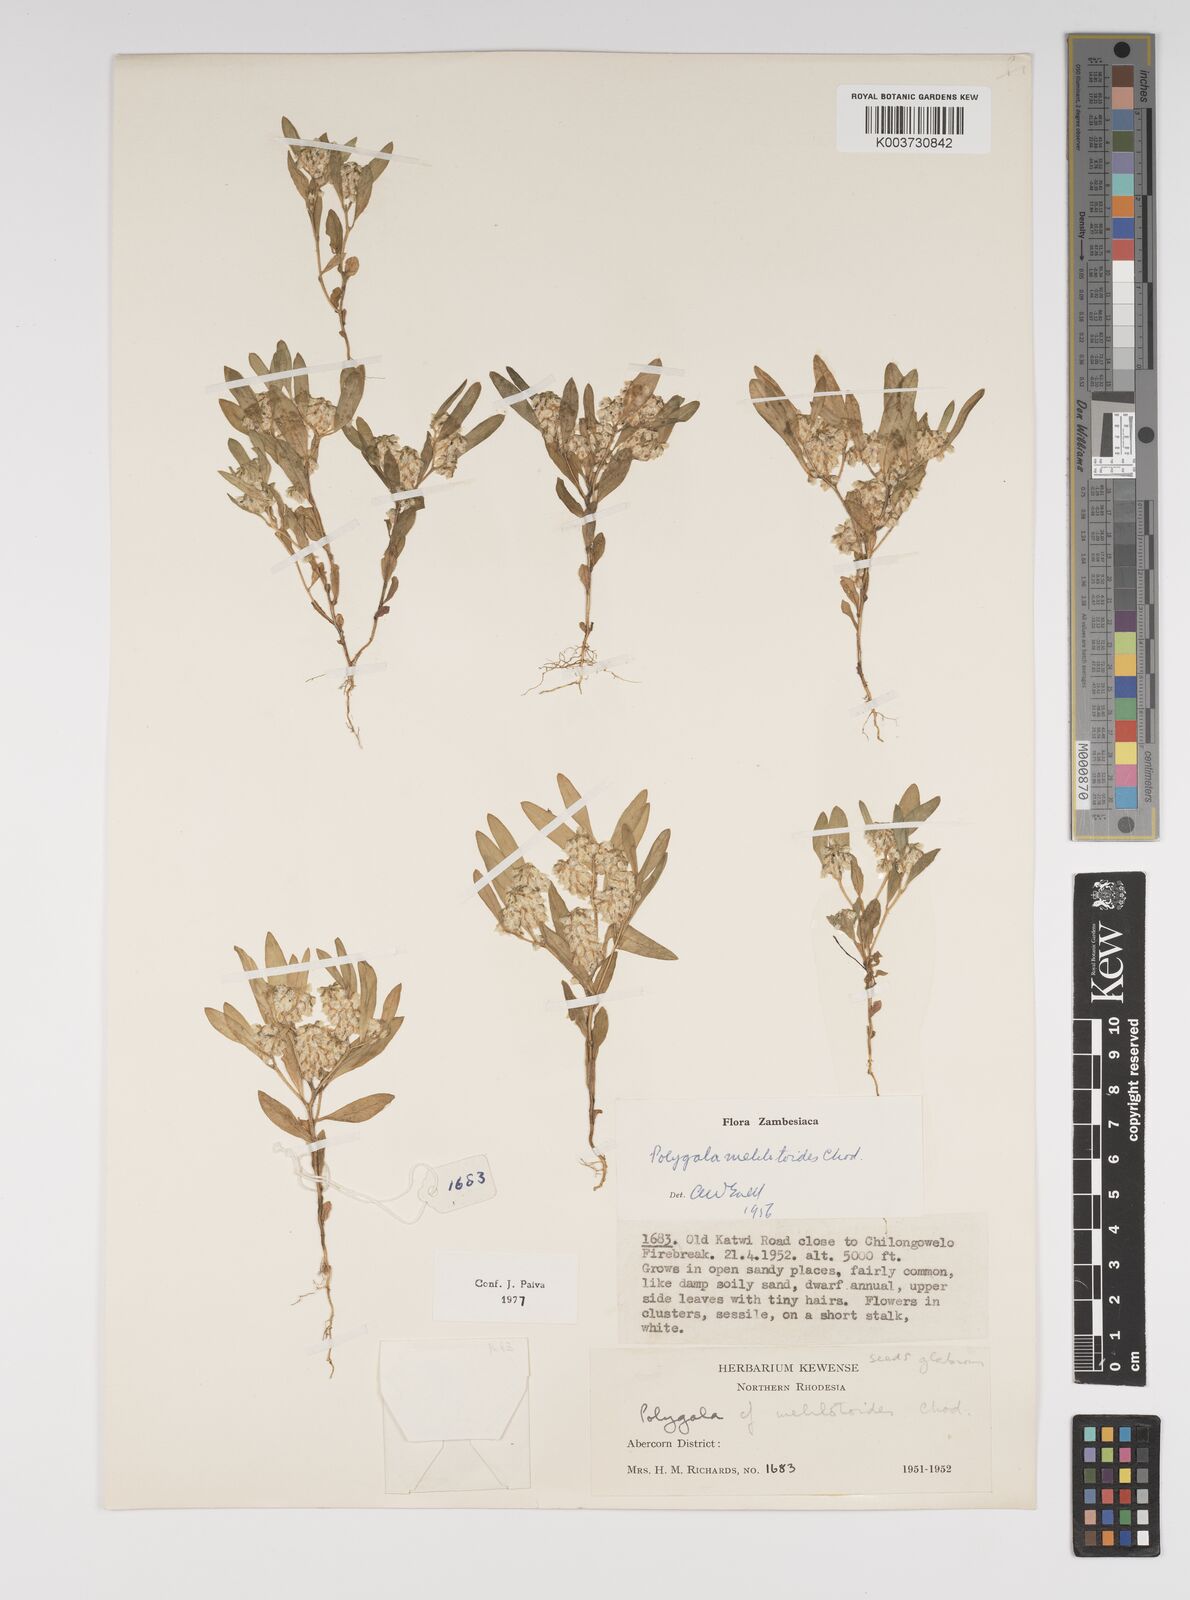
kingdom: Plantae
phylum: Tracheophyta
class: Magnoliopsida
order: Fabales
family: Polygalaceae
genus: Polygala
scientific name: Polygala melilotoides
